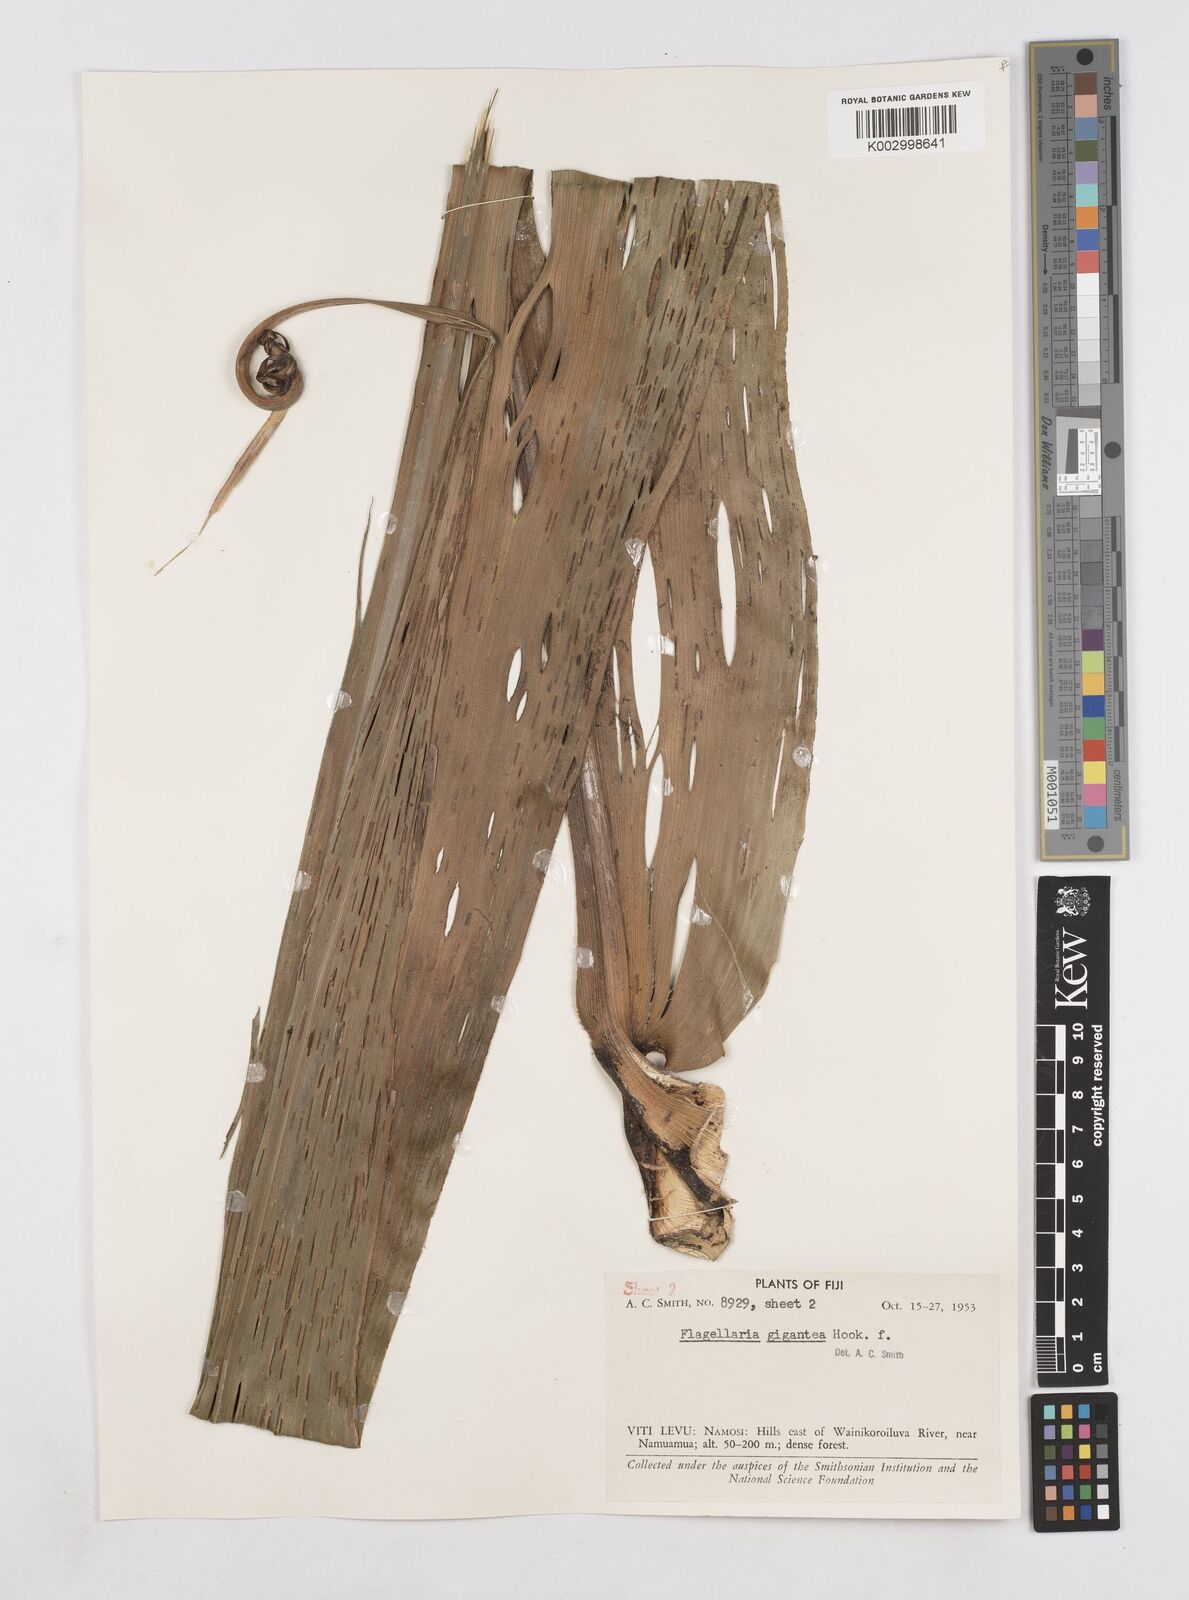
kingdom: Plantae
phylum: Tracheophyta
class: Liliopsida
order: Poales
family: Flagellariaceae
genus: Flagellaria
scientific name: Flagellaria gigantea
